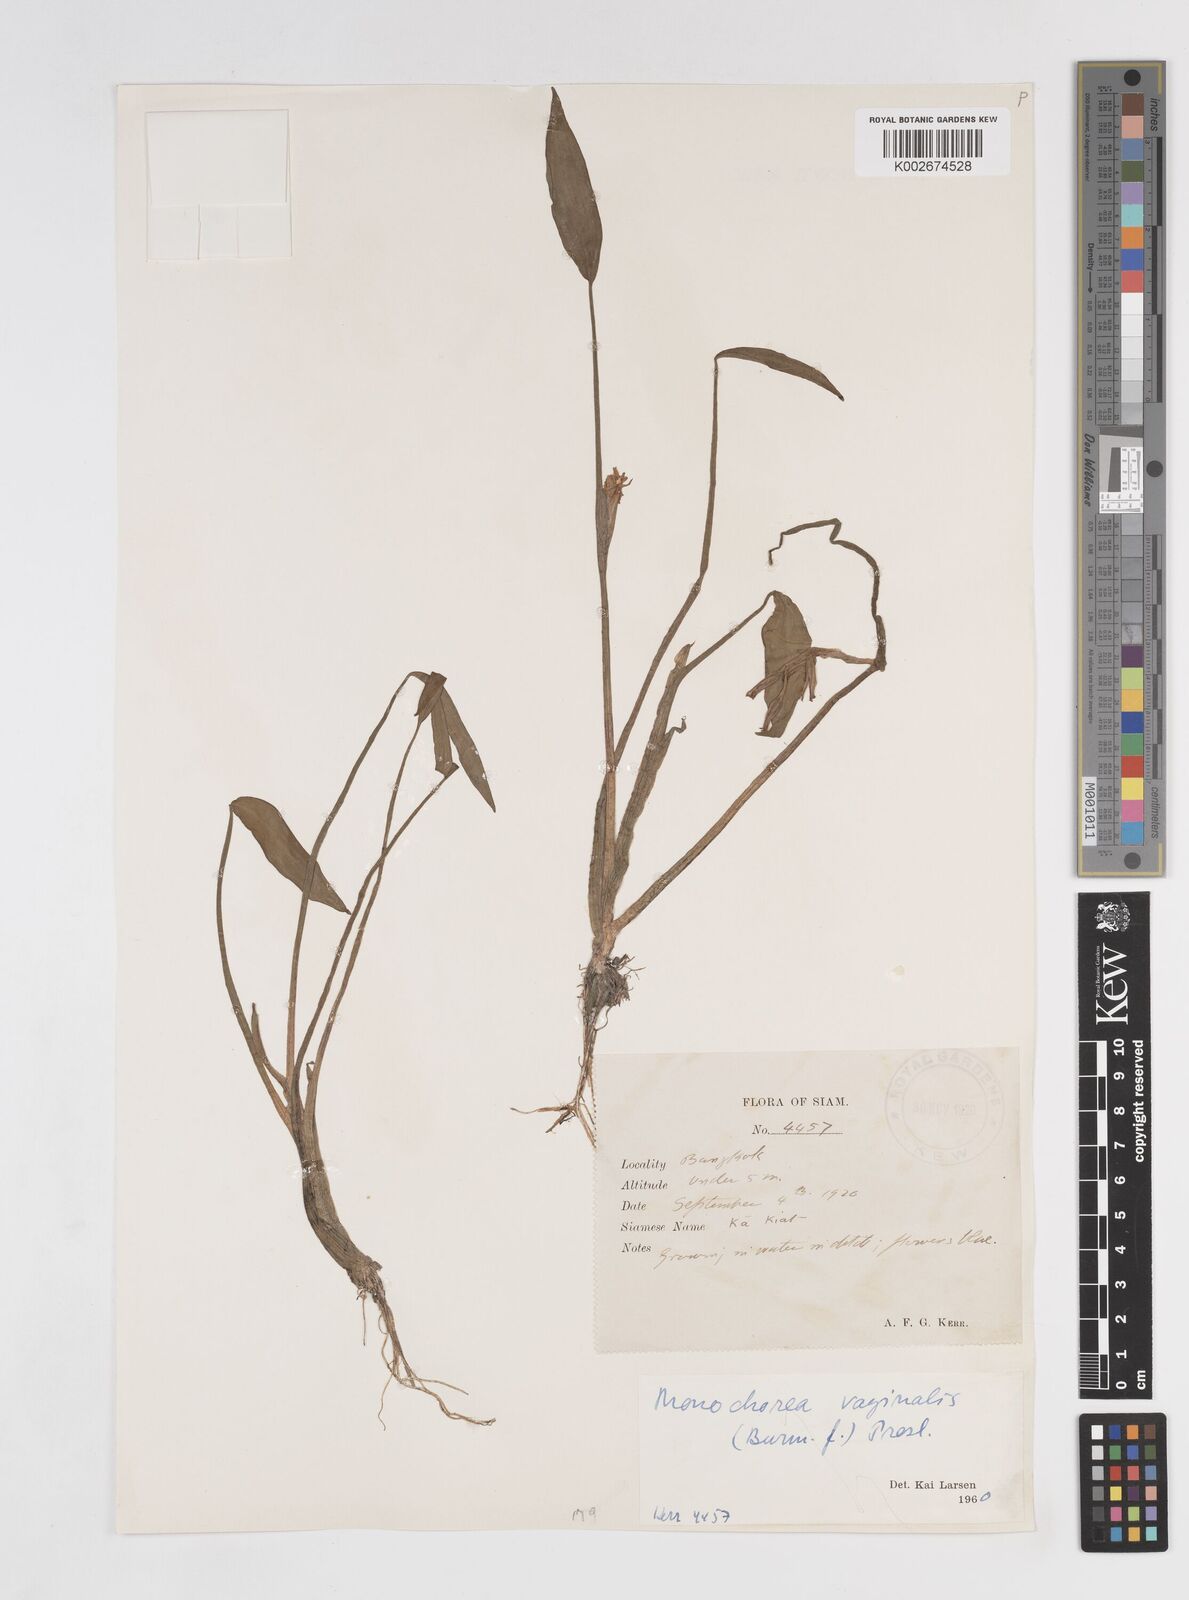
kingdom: Plantae
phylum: Tracheophyta
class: Liliopsida
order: Commelinales
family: Pontederiaceae
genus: Pontederia
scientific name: Pontederia vaginalis
